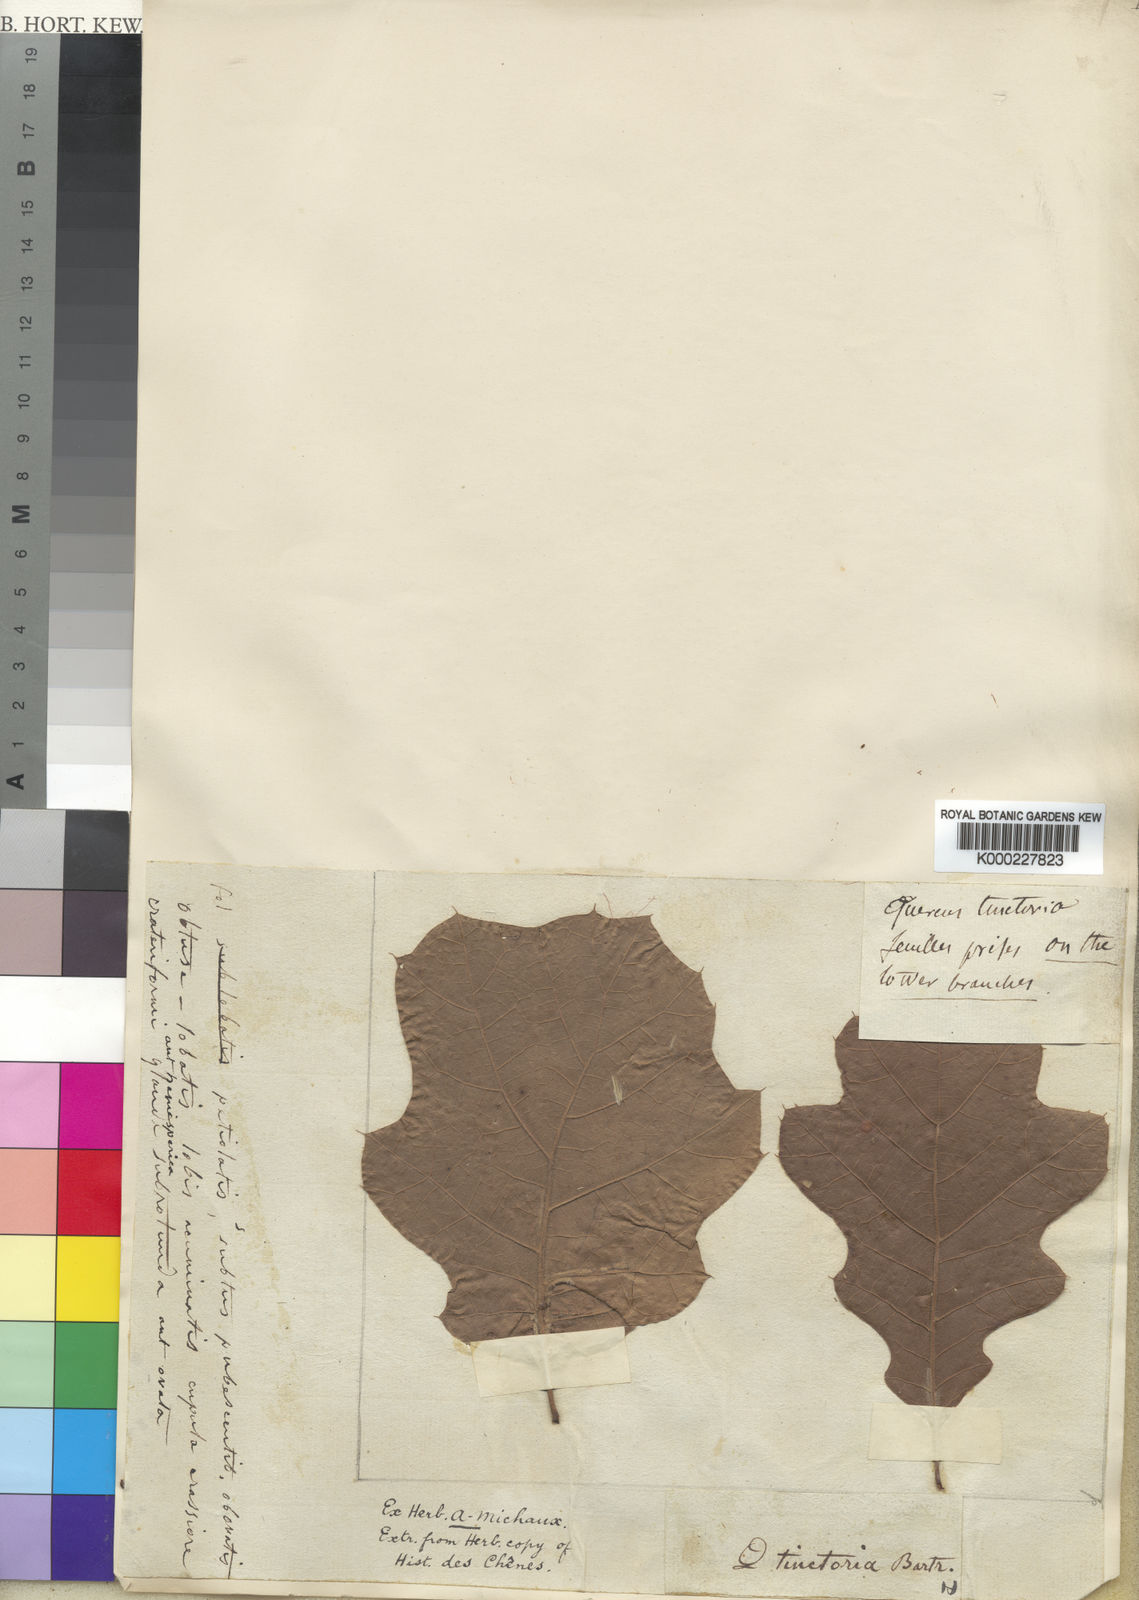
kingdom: Plantae
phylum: Tracheophyta
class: Magnoliopsida
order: Fagales
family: Fagaceae
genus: Quercus
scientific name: Quercus velutina
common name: Black oak
